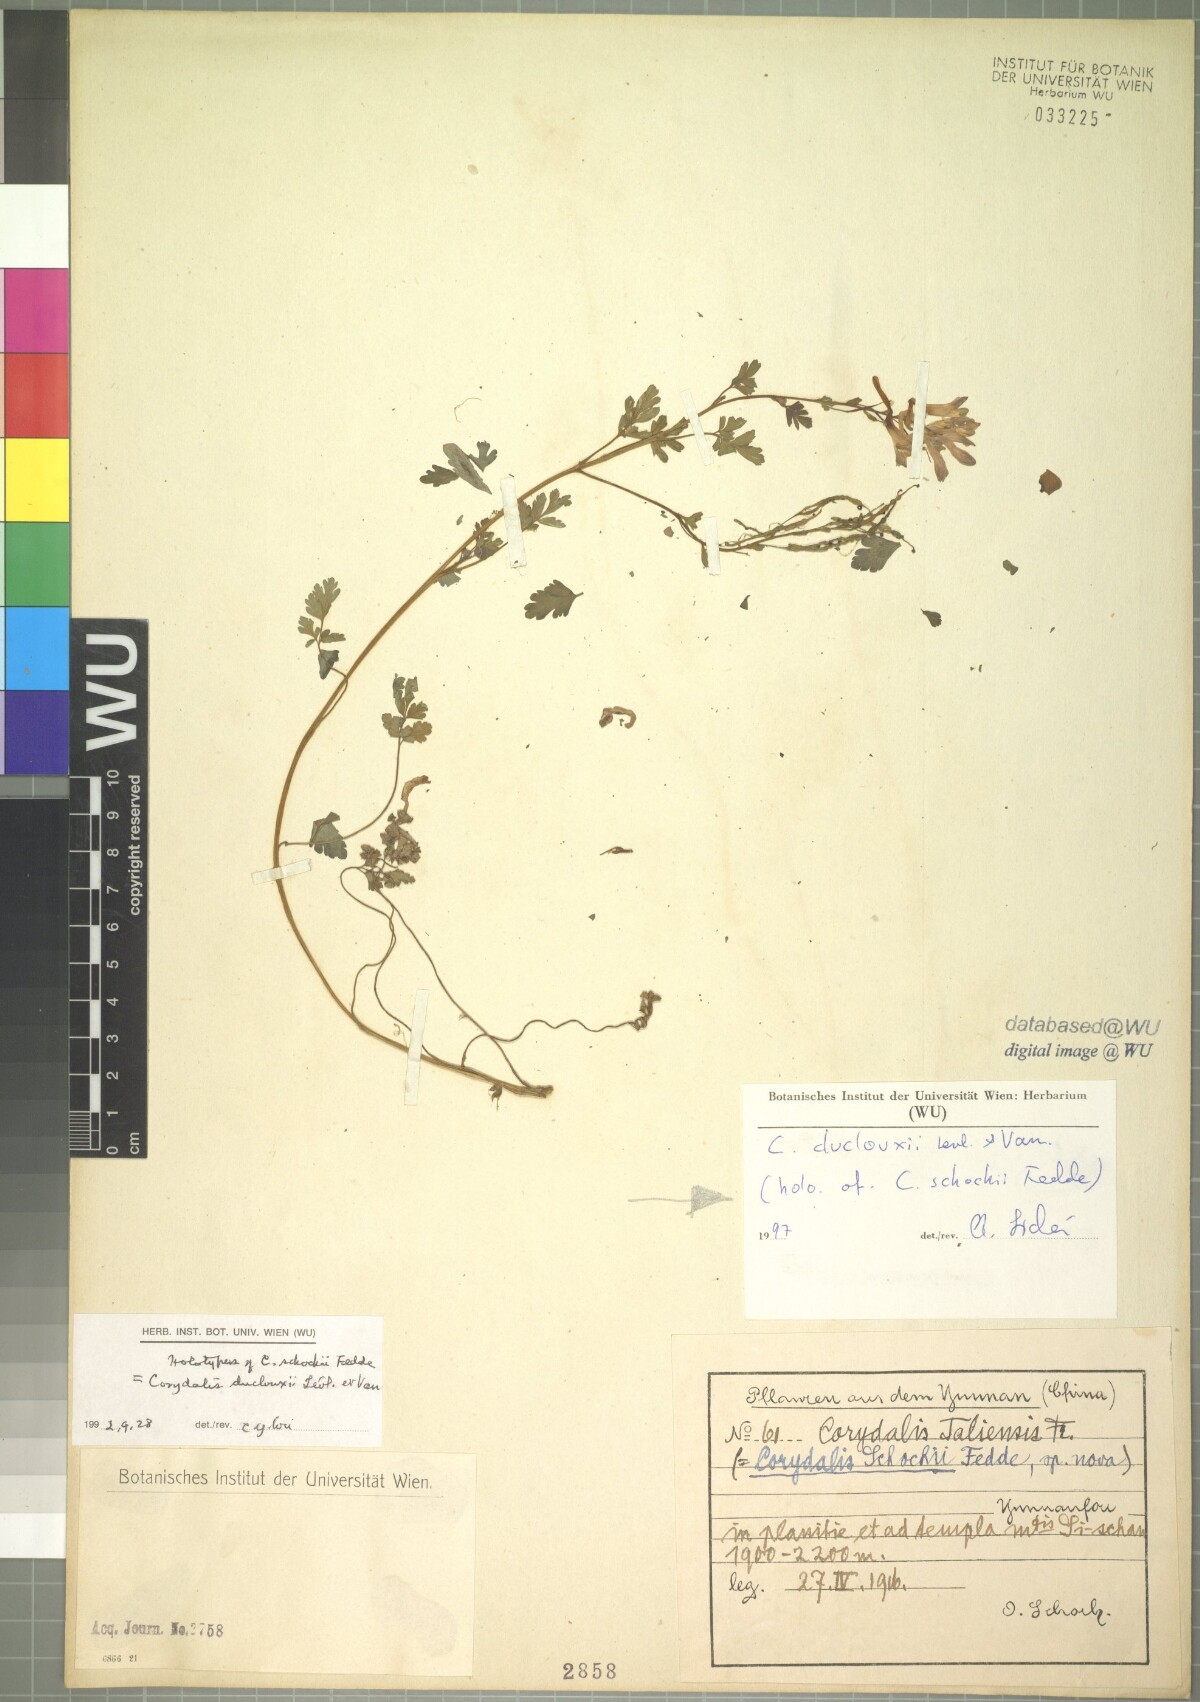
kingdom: Plantae
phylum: Tracheophyta
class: Magnoliopsida
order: Ranunculales
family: Papaveraceae
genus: Corydalis
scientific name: Corydalis duclouxii
